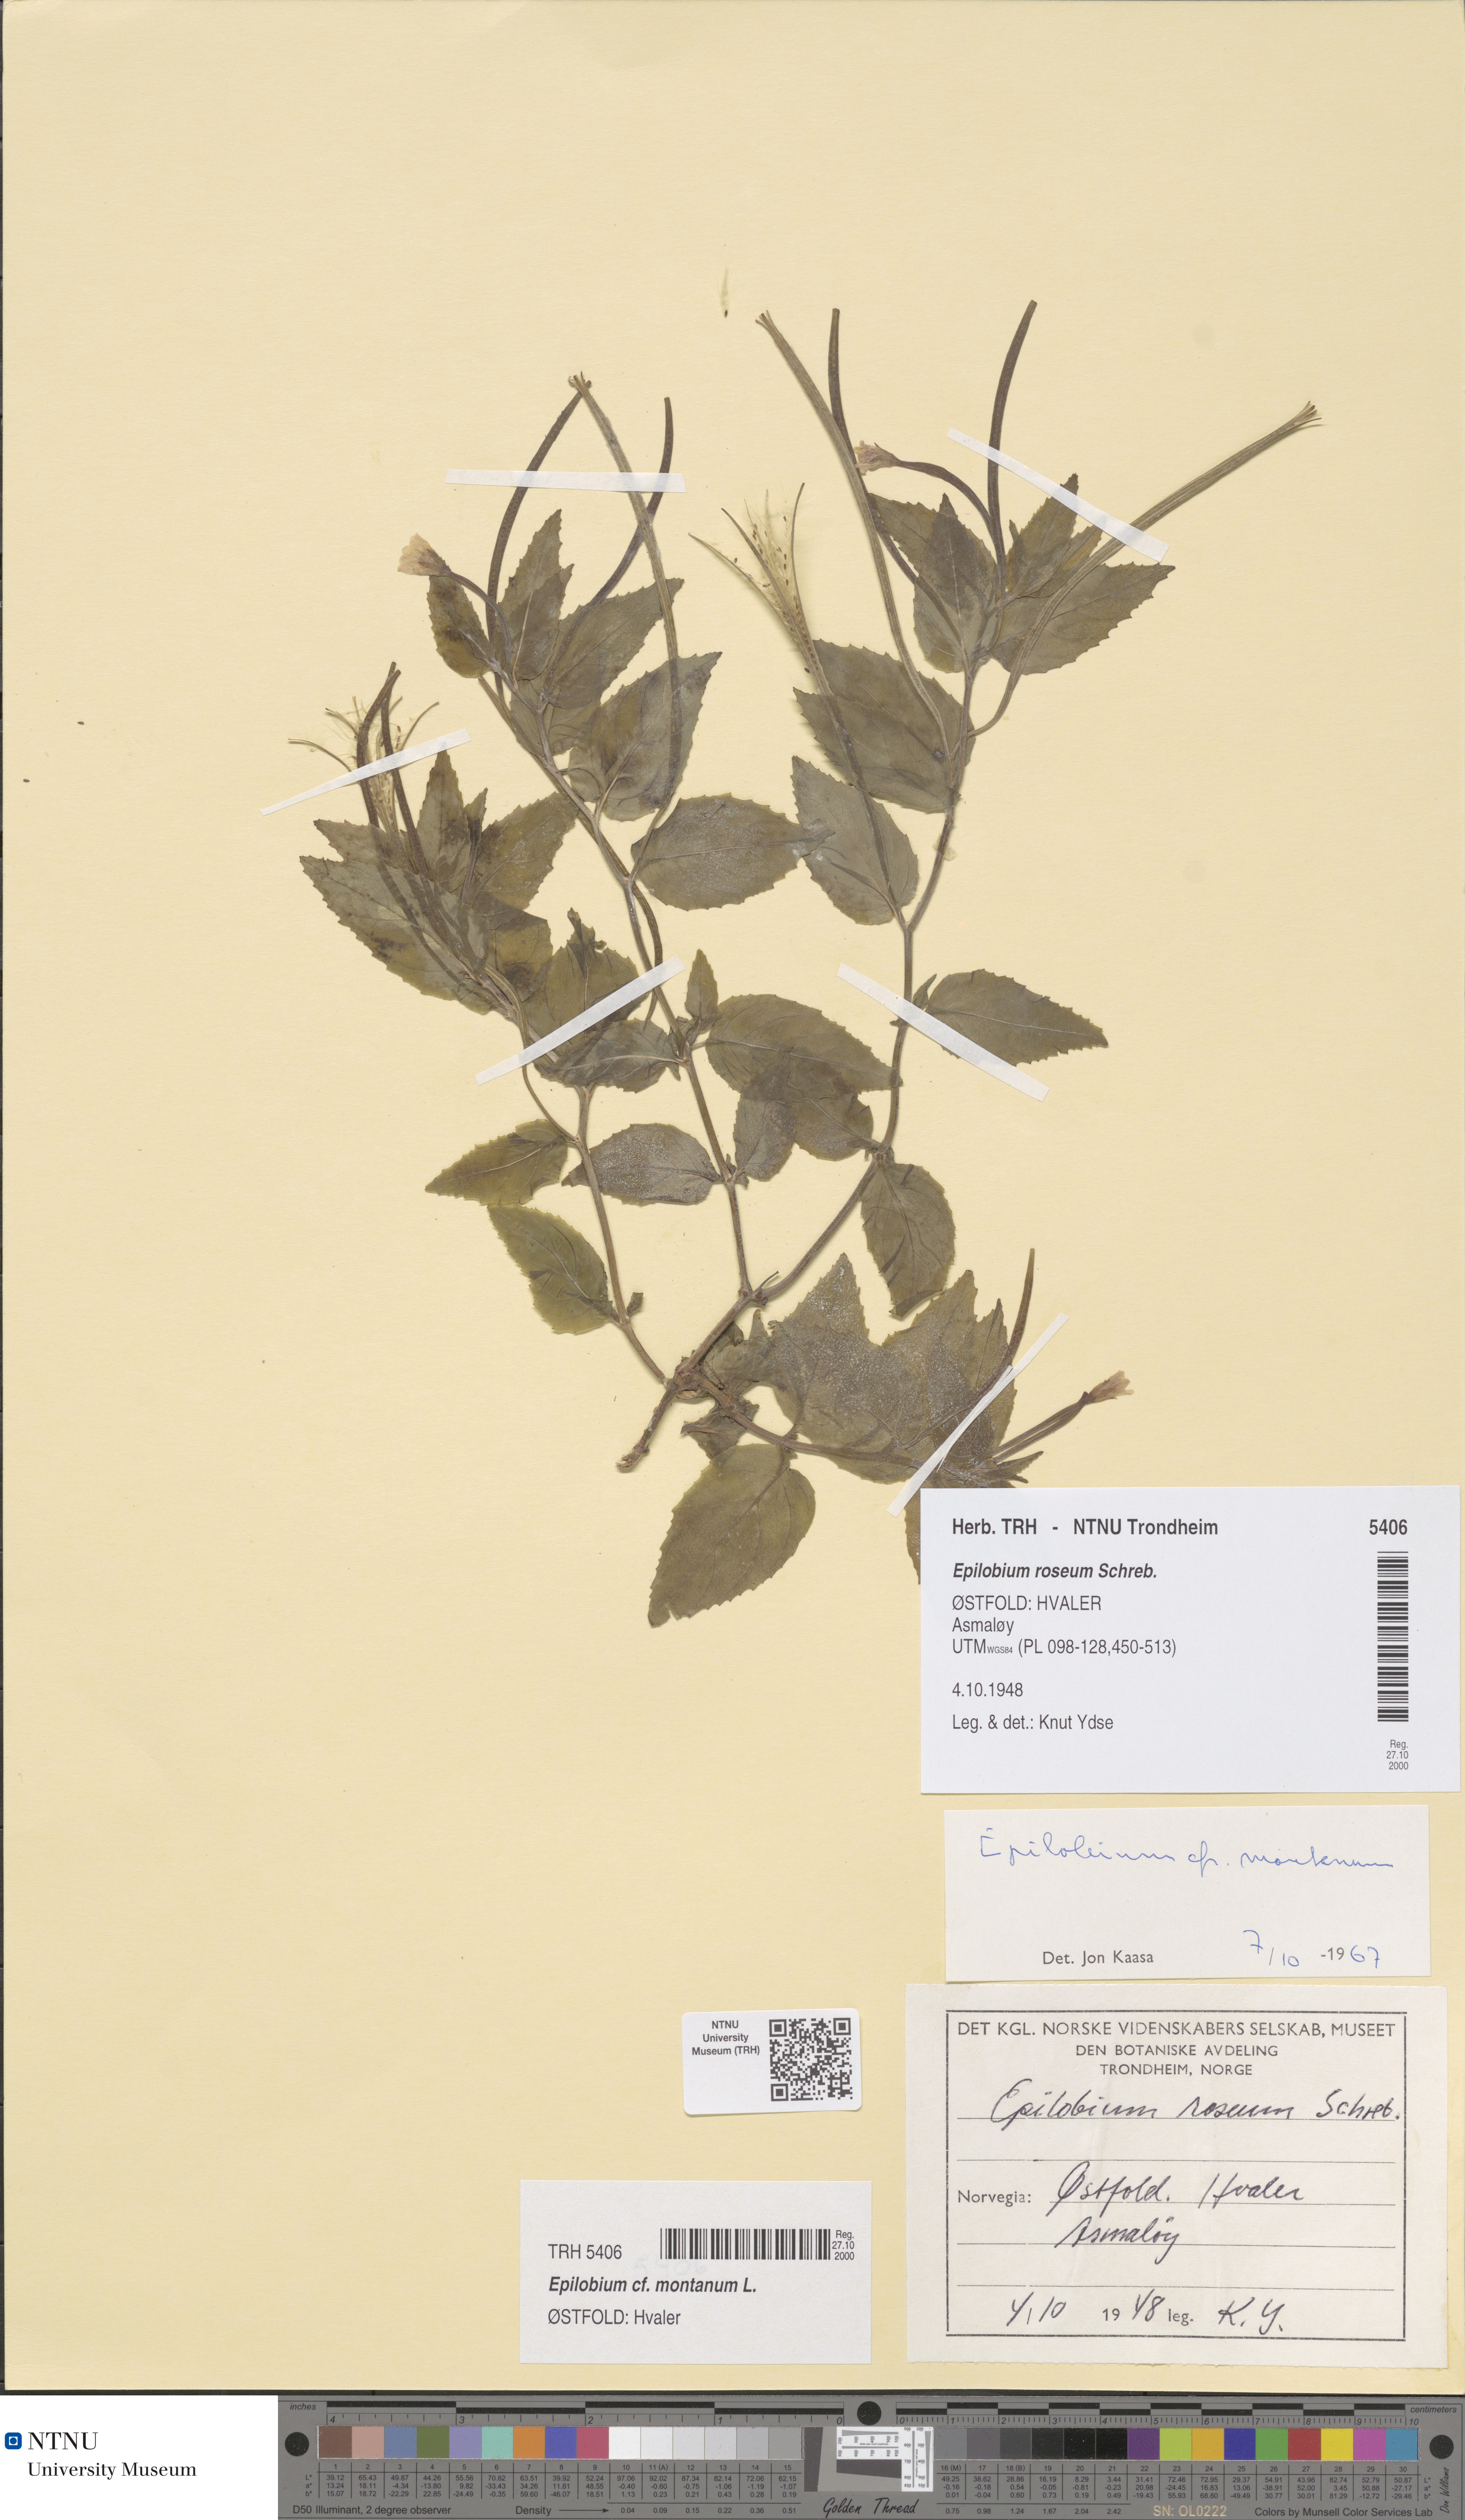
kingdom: Plantae
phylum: Tracheophyta
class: Magnoliopsida
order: Myrtales
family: Onagraceae
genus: Epilobium
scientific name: Epilobium montanum
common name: Broad-leaved willowherb
